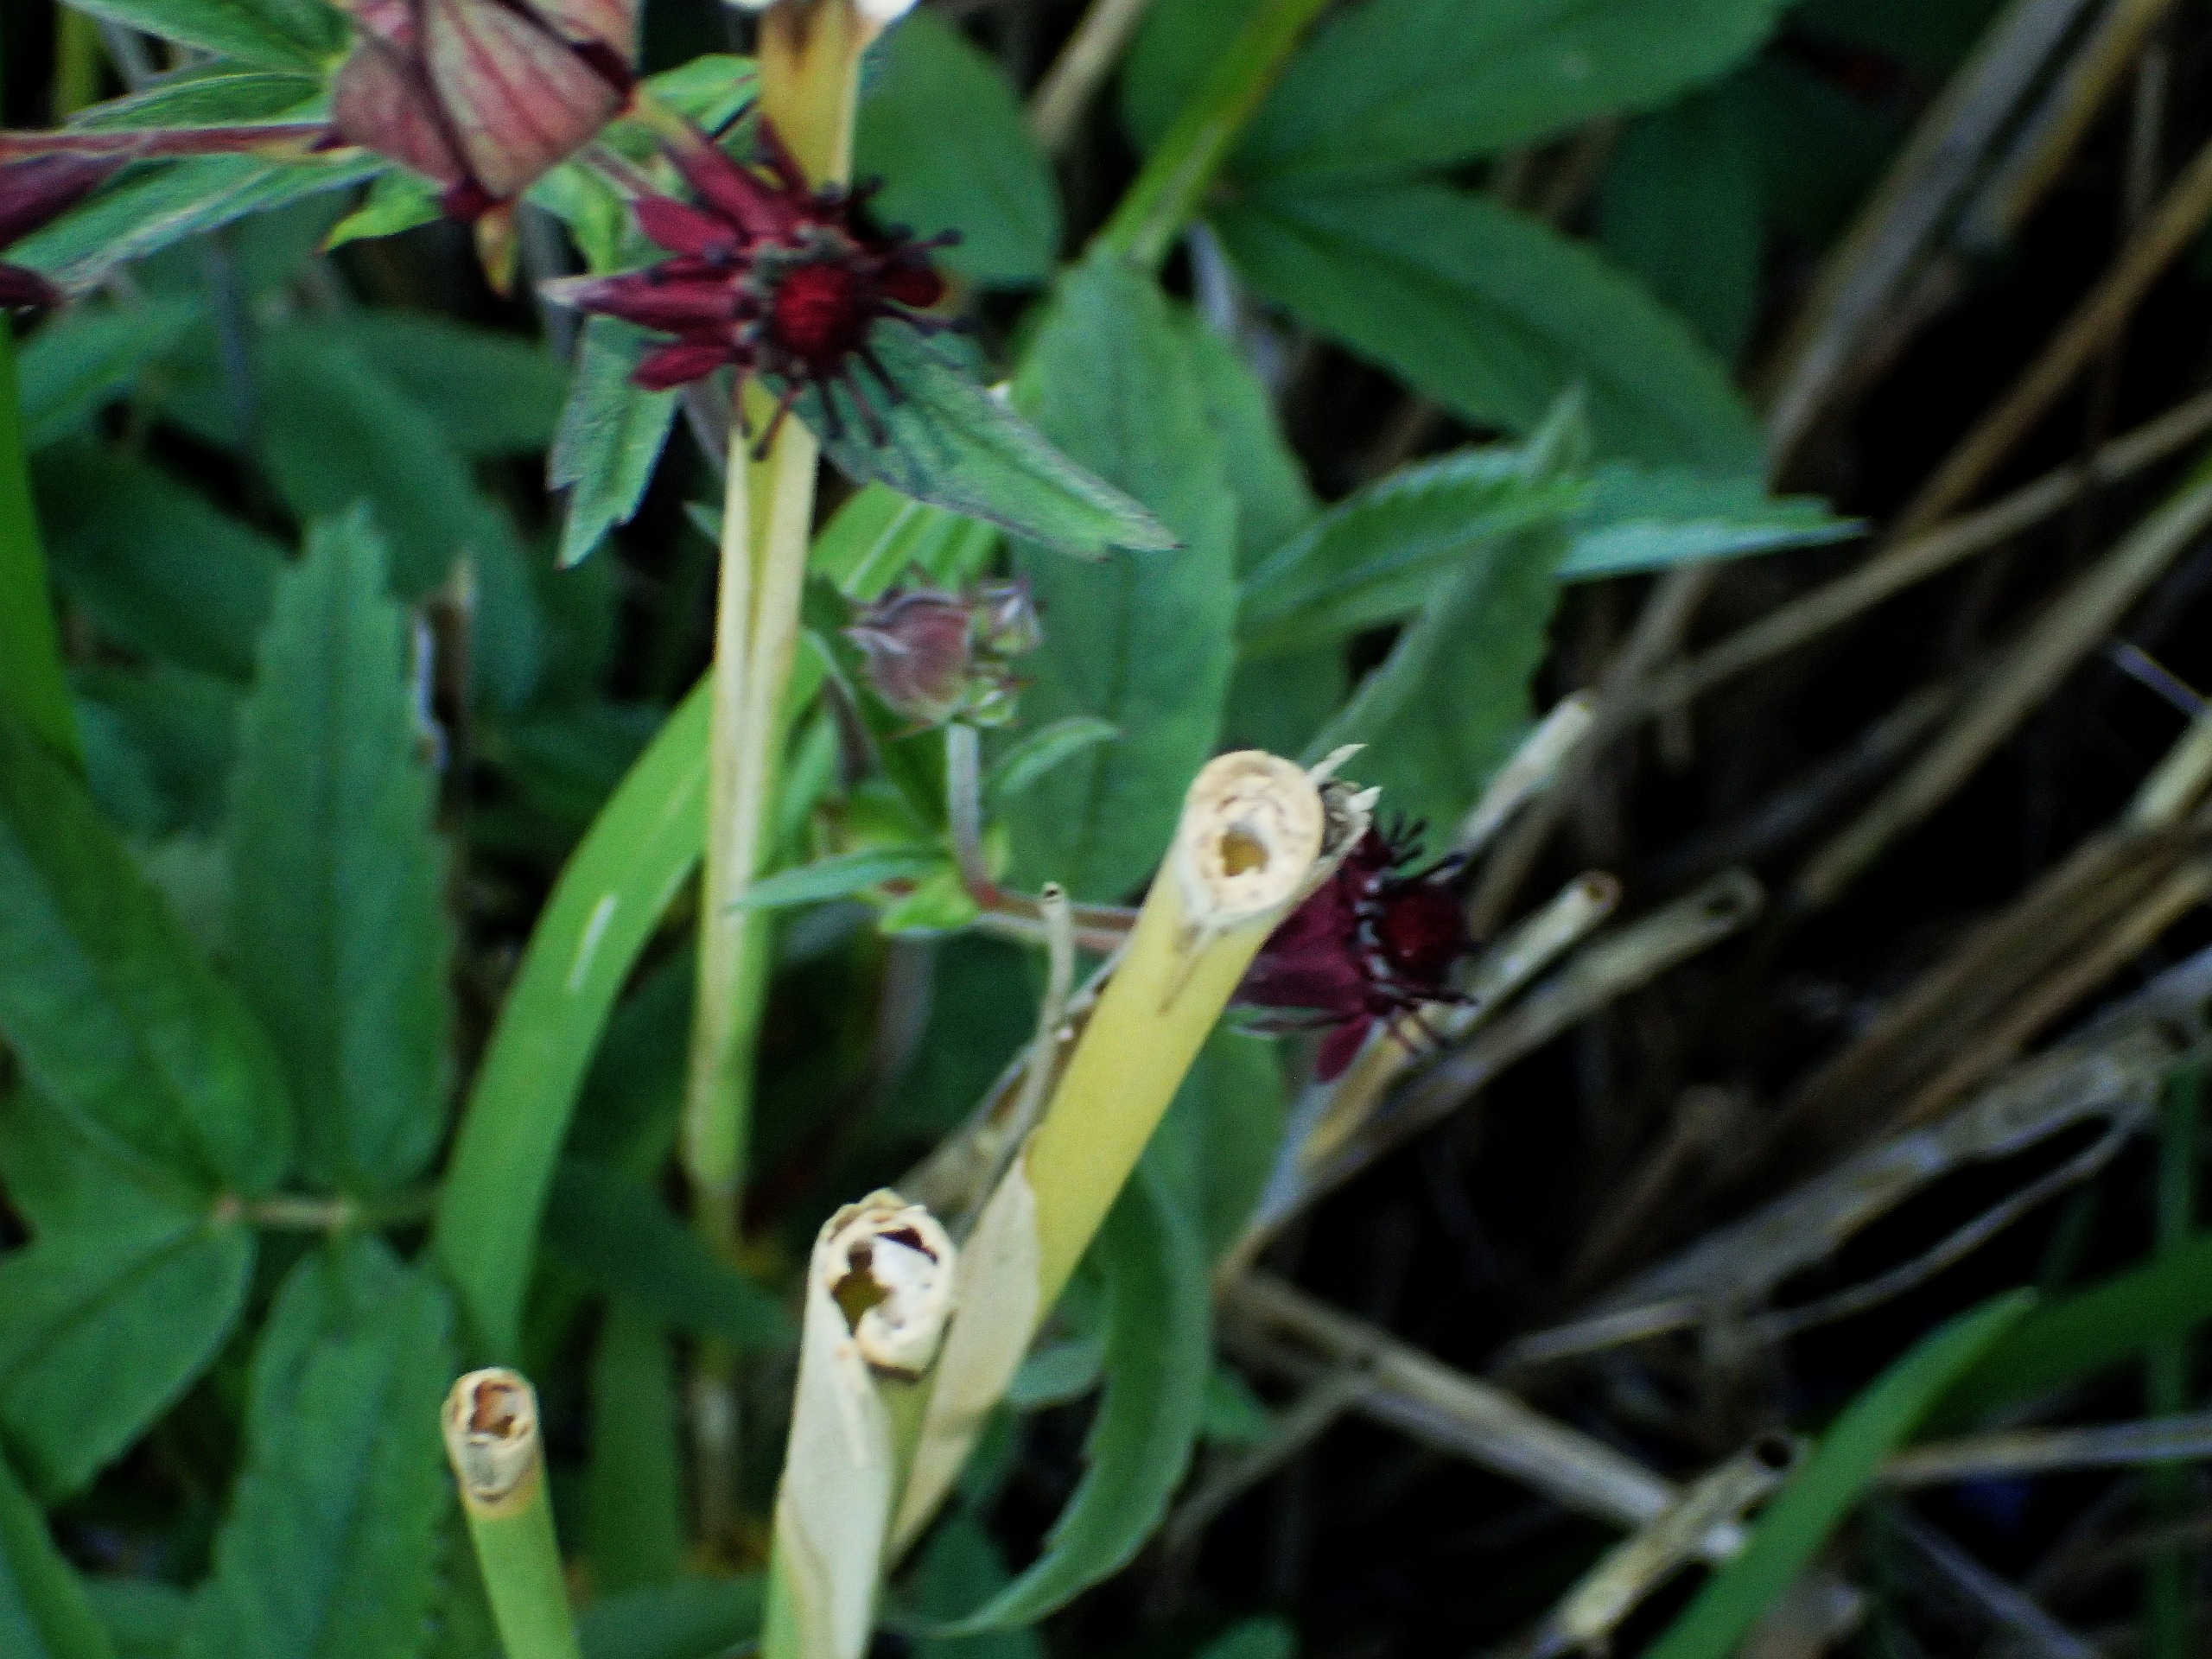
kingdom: Plantae
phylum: Tracheophyta
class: Magnoliopsida
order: Rosales
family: Rosaceae
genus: Comarum
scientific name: Comarum palustre
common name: Kragefod
